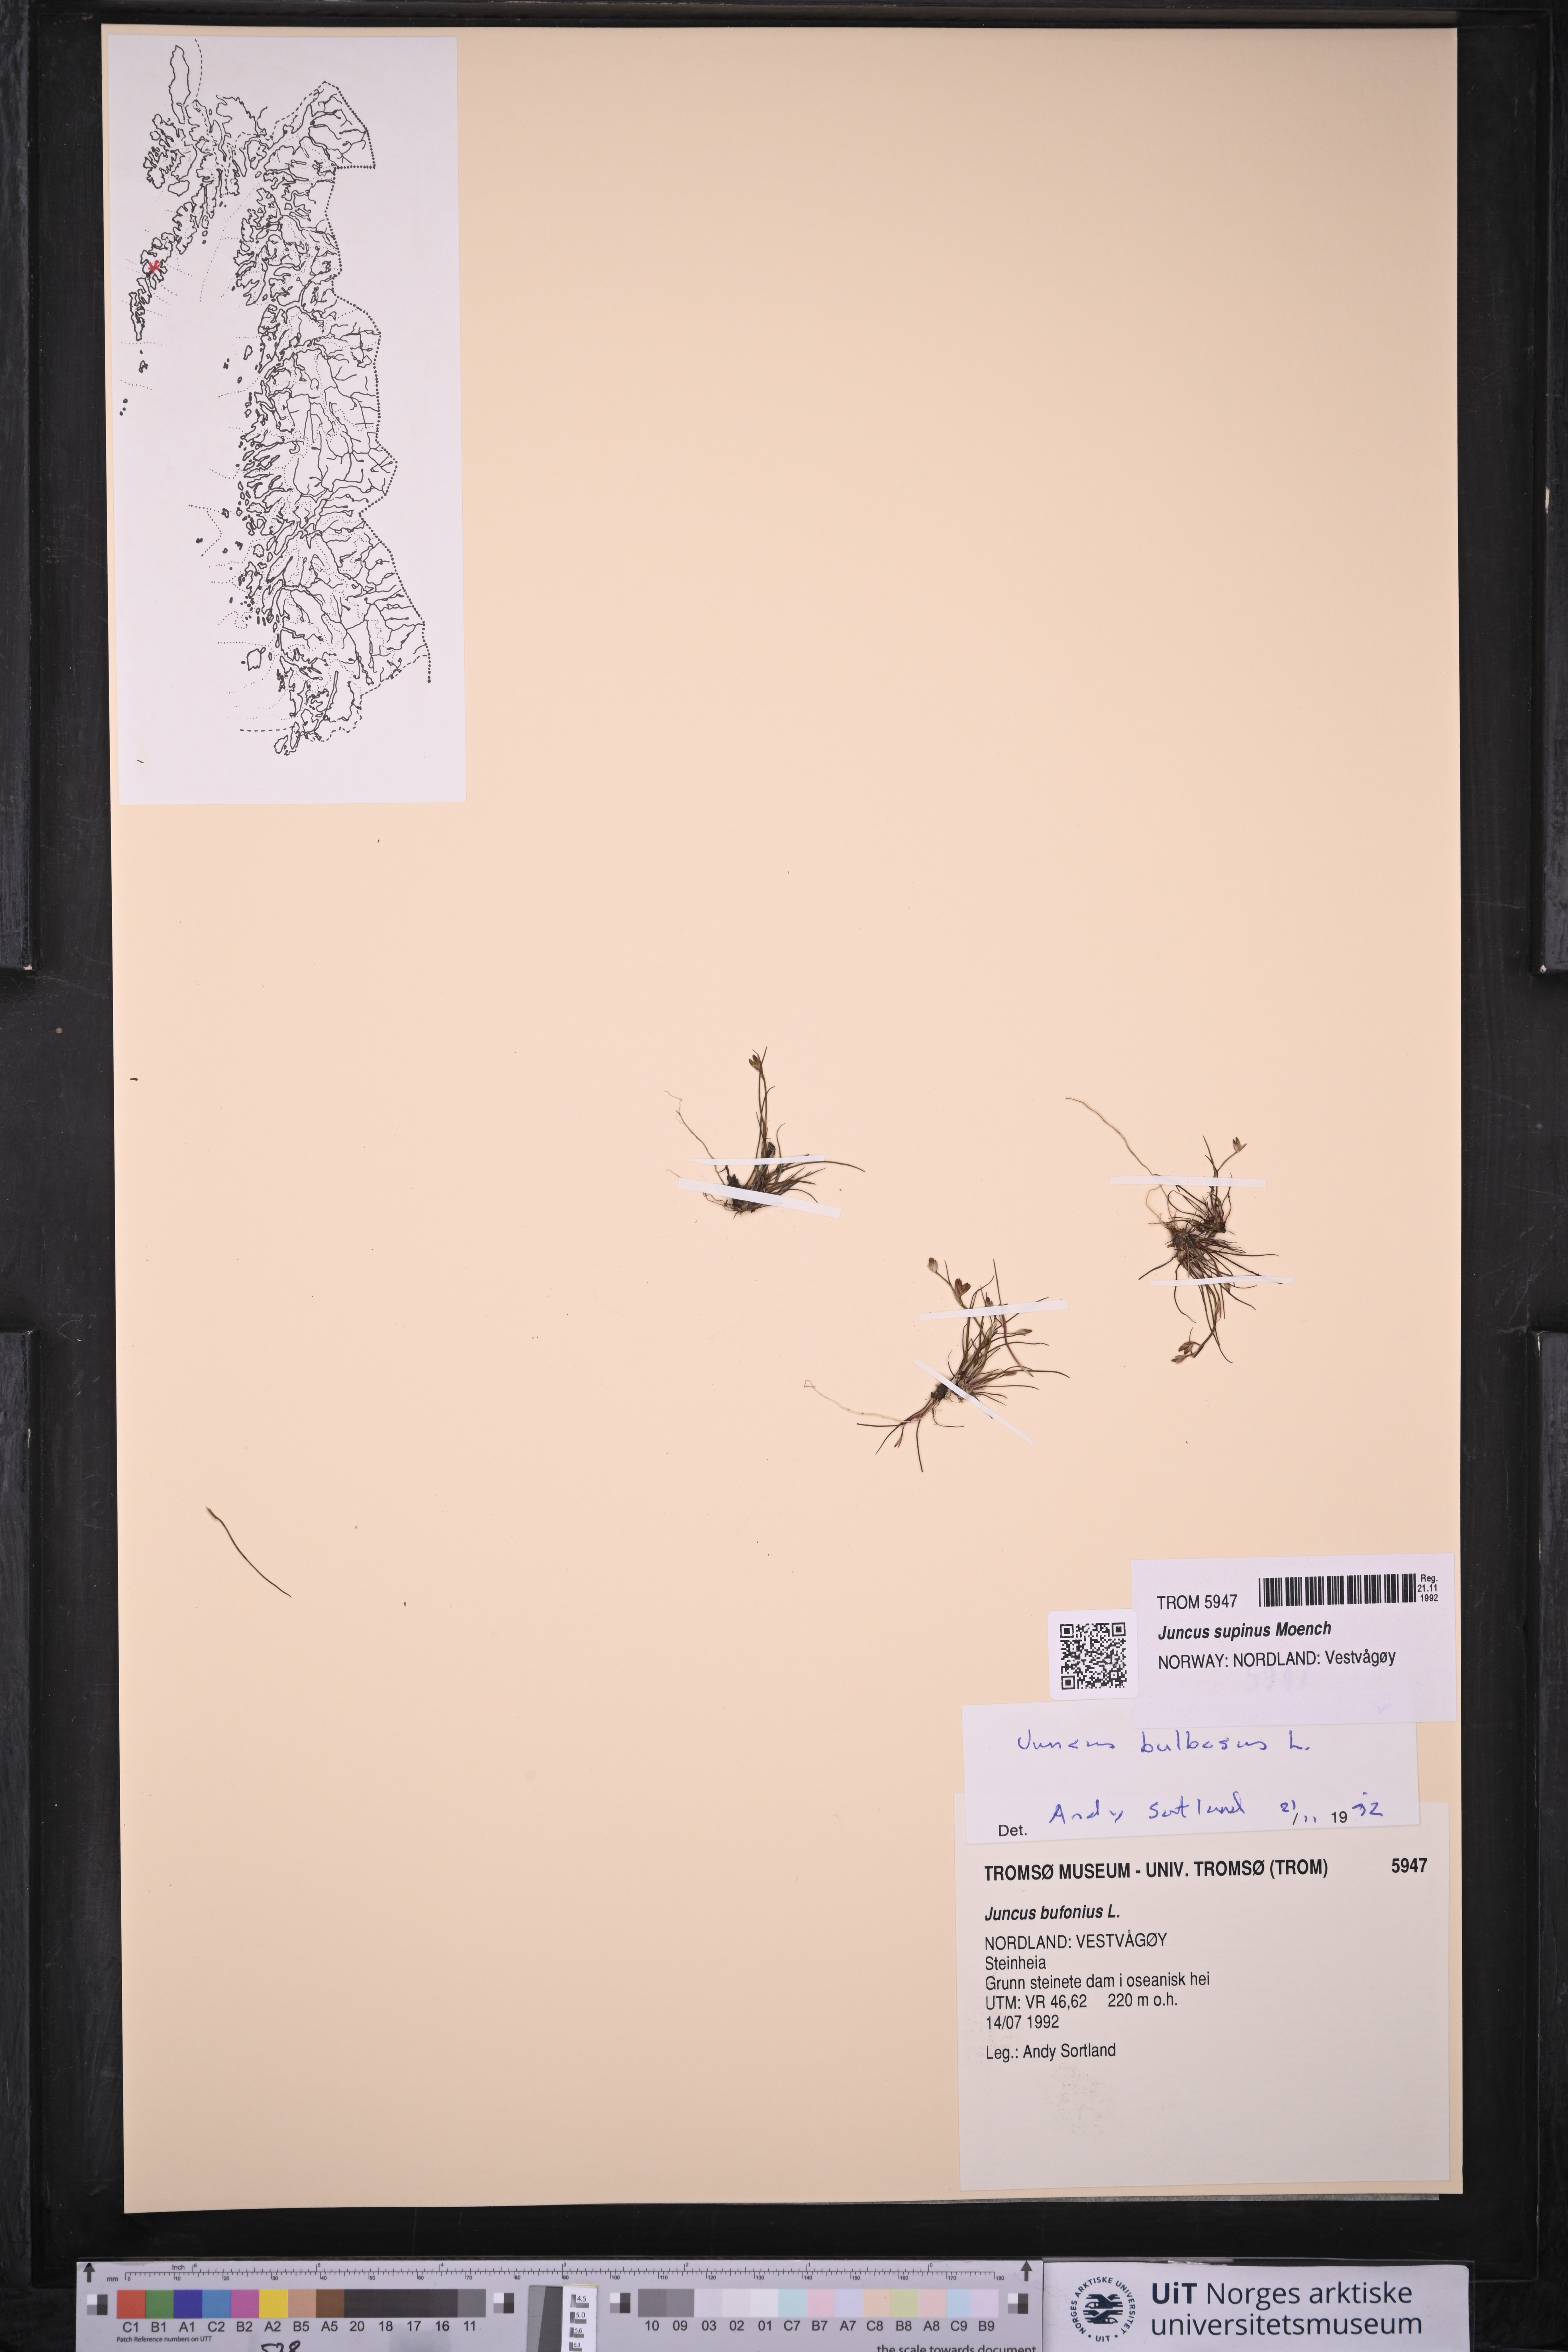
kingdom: Plantae
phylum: Tracheophyta
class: Liliopsida
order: Poales
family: Juncaceae
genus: Juncus
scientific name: Juncus bulbosus
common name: Bulbous rush
